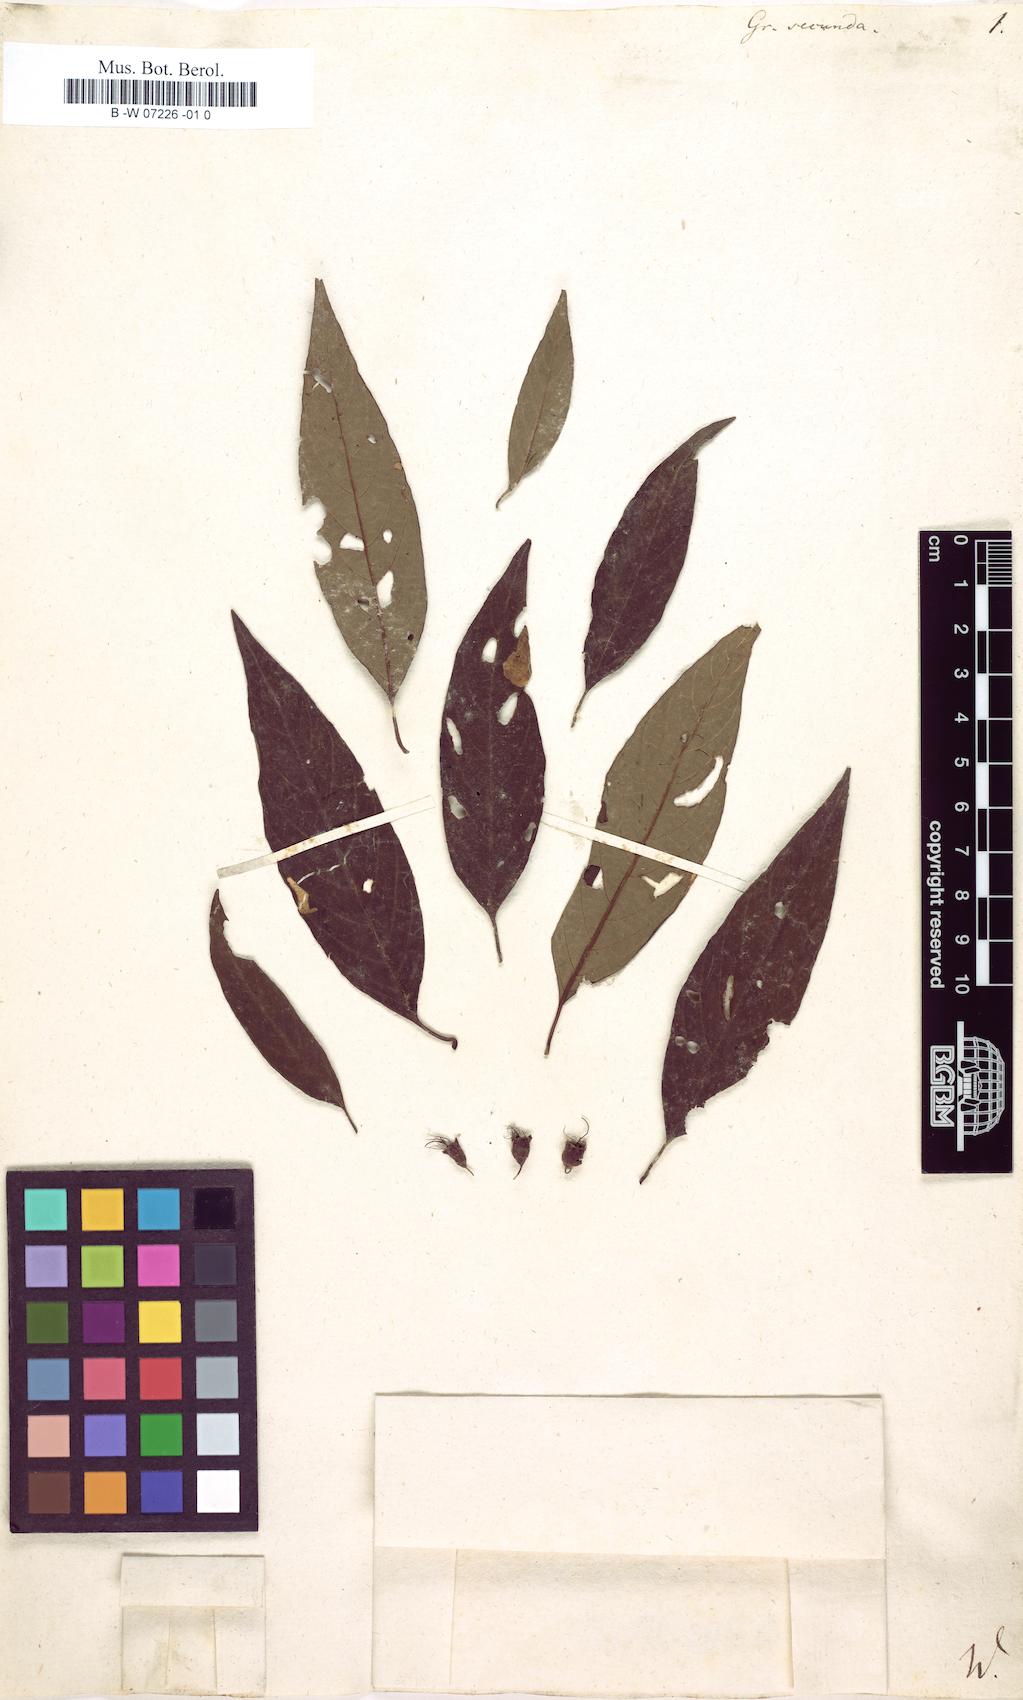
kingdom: Plantae
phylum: Tracheophyta
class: Magnoliopsida
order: Myrtales
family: Combretaceae
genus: Combretum
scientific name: Combretum farinosum
